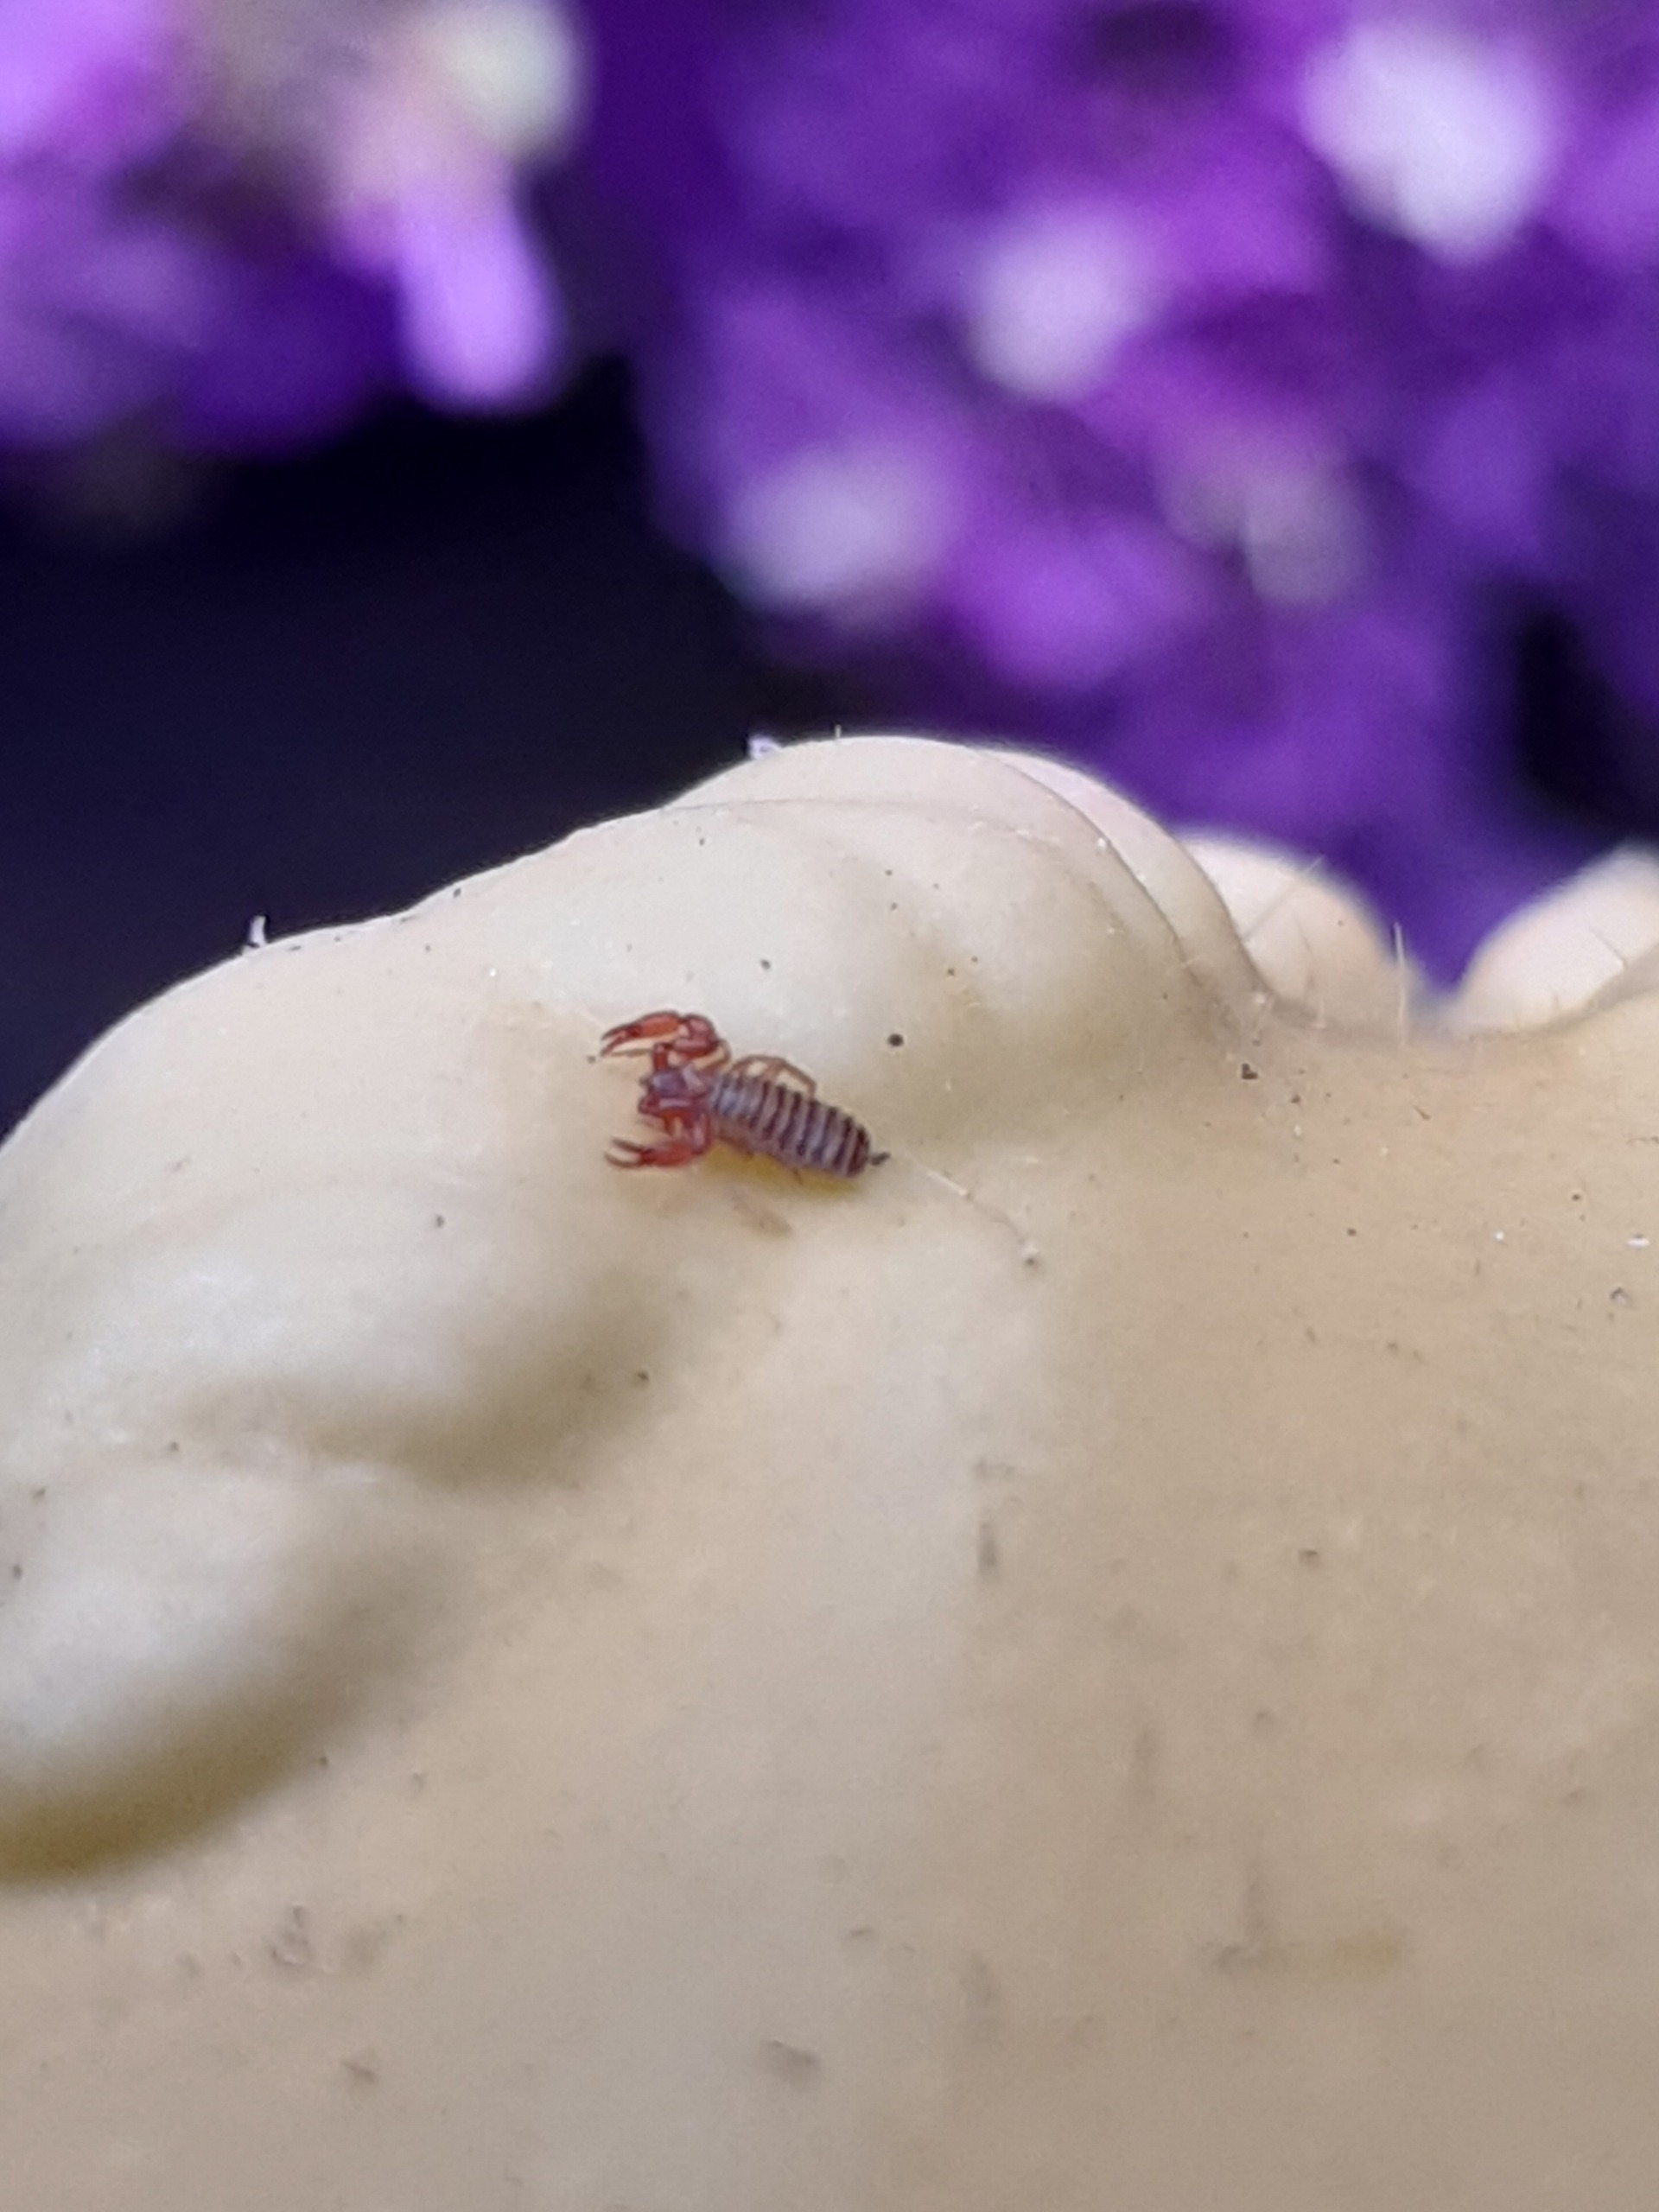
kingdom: Animalia
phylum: Arthropoda
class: Arachnida
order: Pseudoscorpiones
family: Chernetidae
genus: Lamprochernes
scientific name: Lamprochernes
